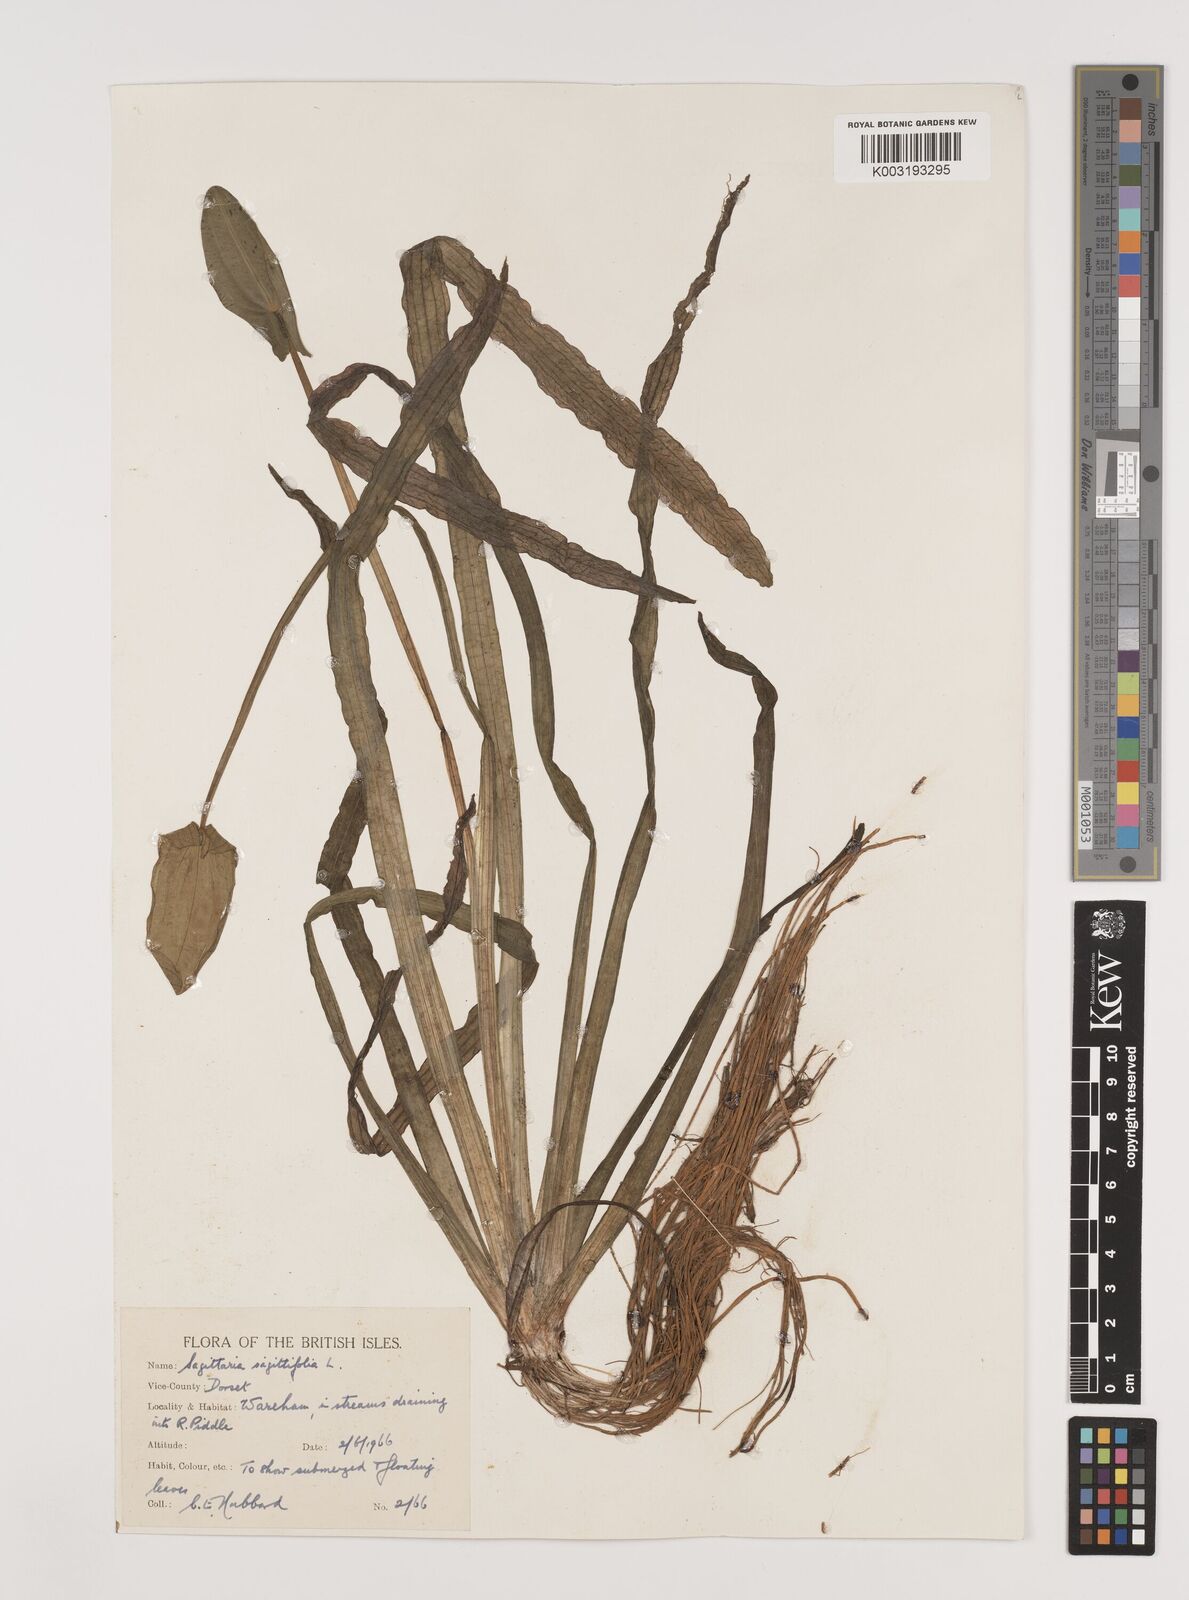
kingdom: Plantae
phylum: Tracheophyta
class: Liliopsida
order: Alismatales
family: Alismataceae
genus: Sagittaria
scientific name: Sagittaria rigida
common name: Canadian arrowhead
